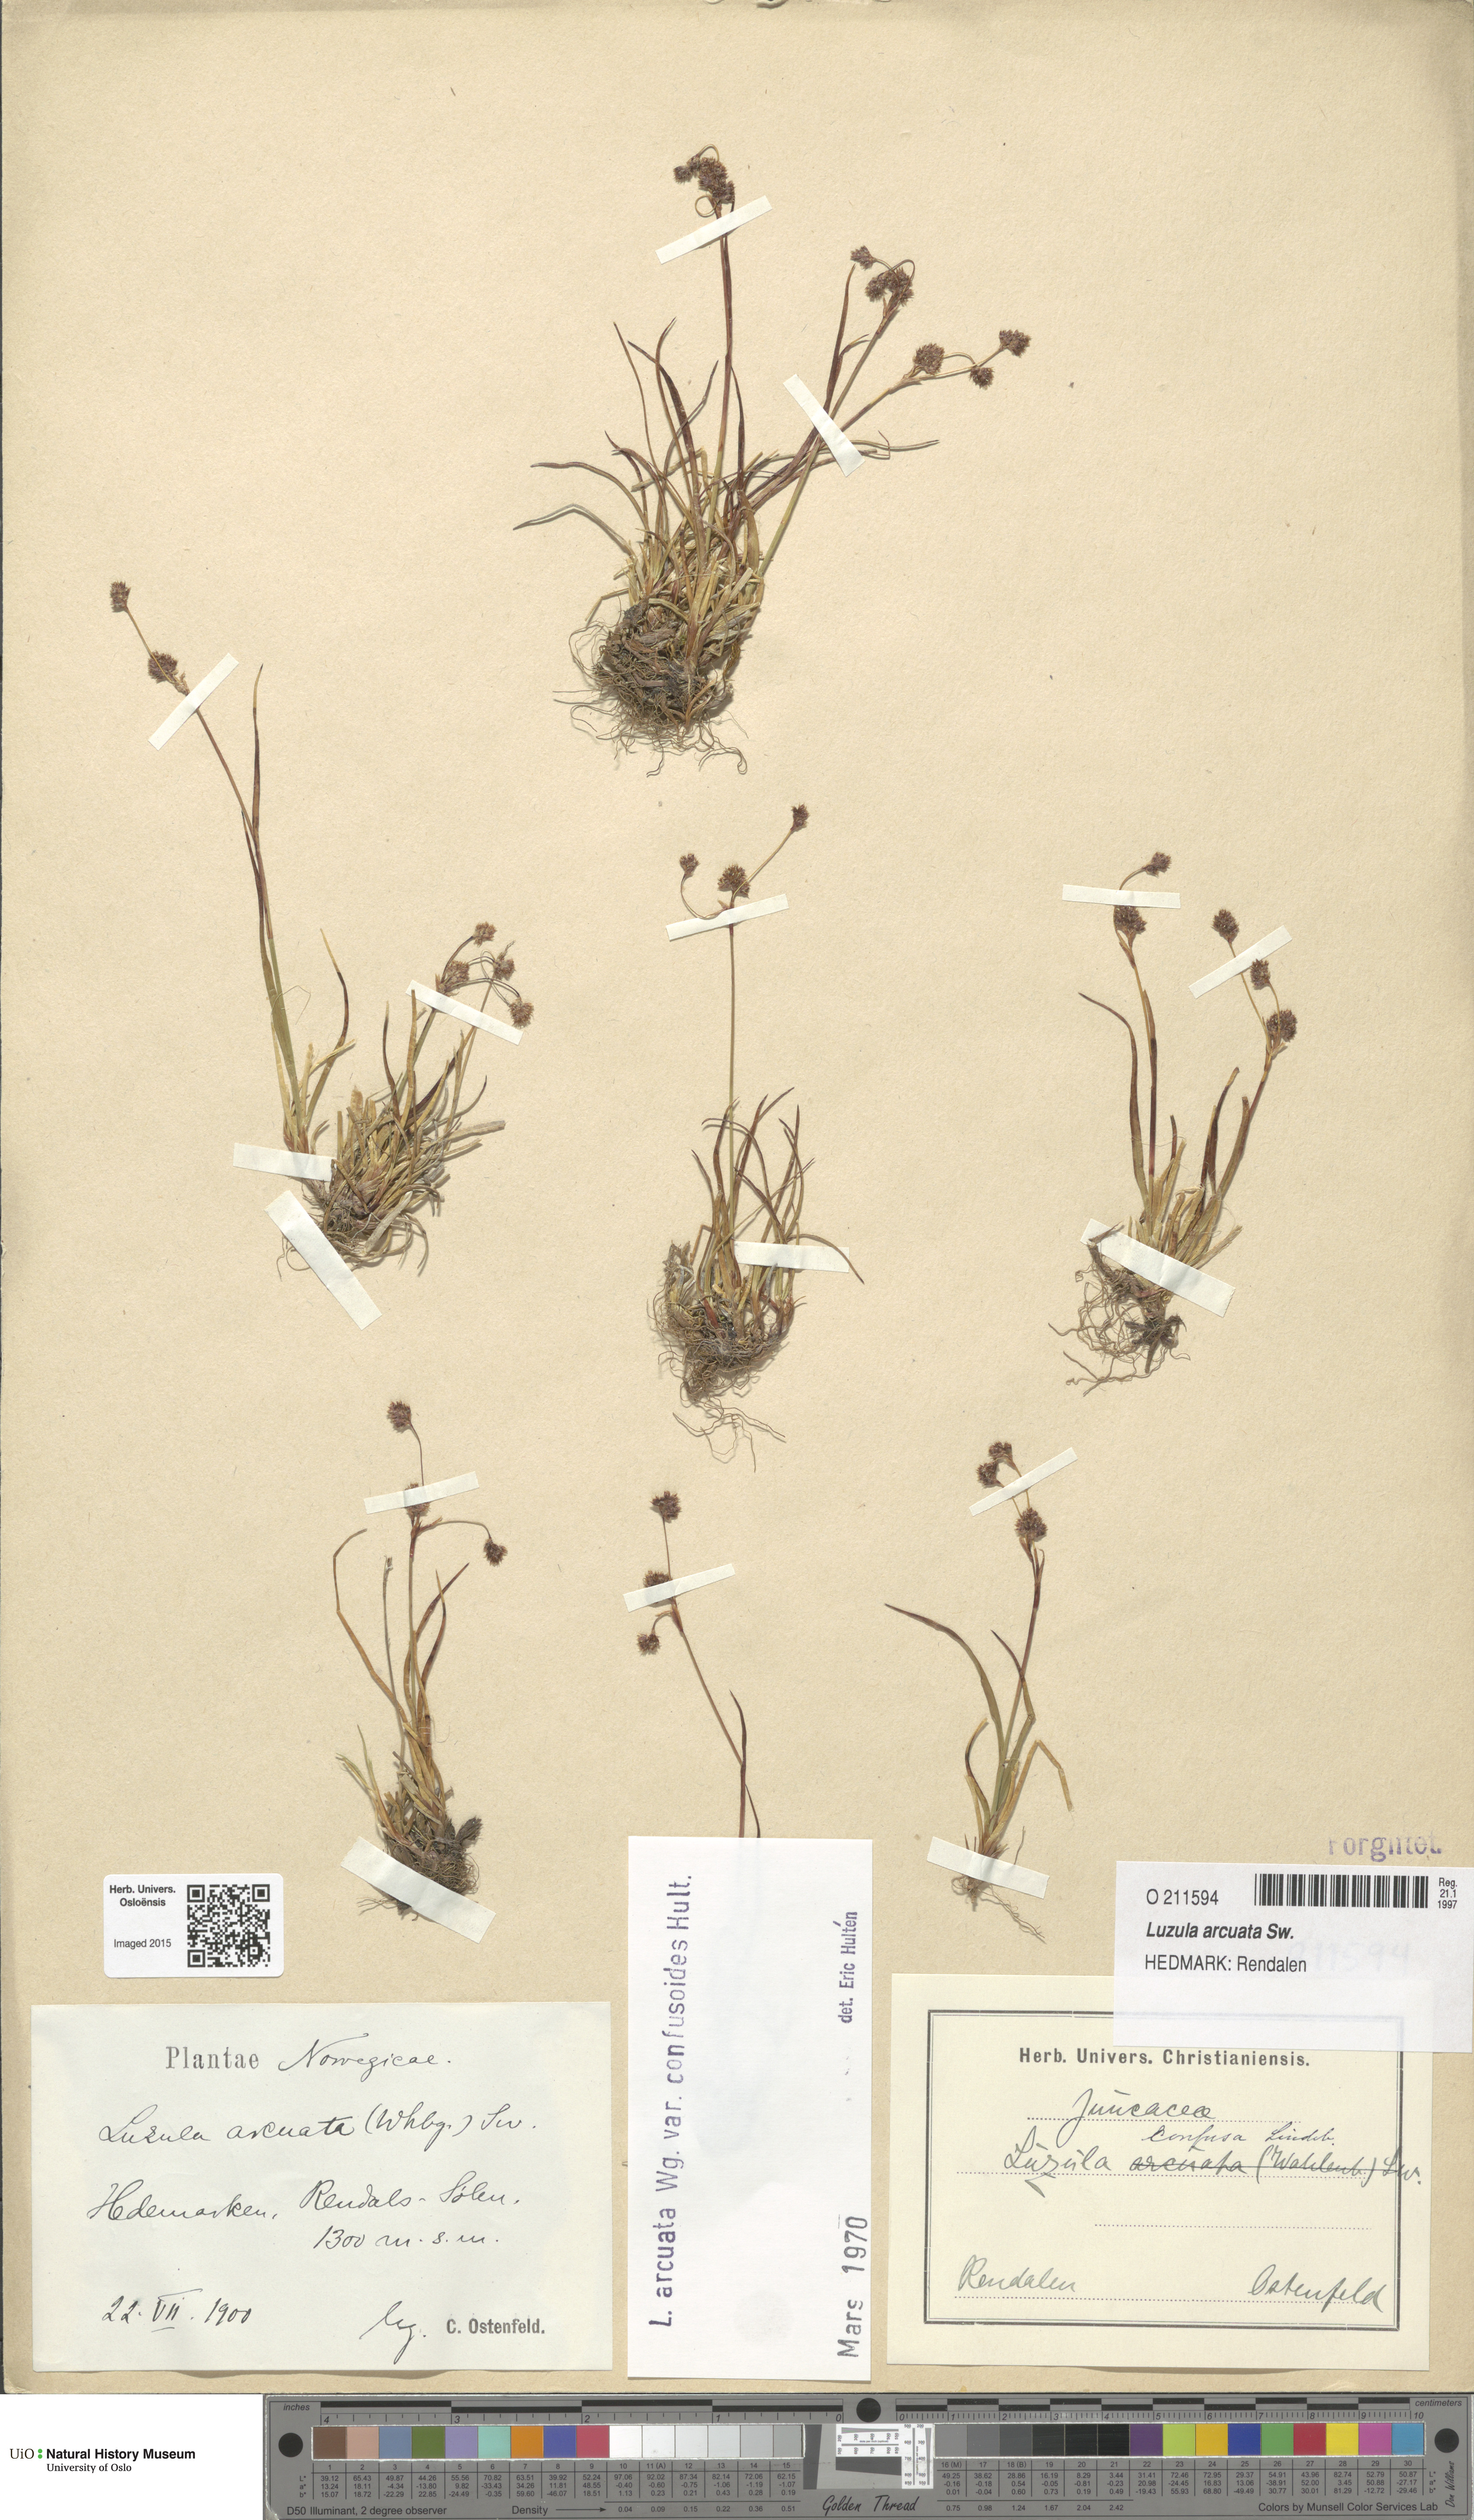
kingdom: Plantae
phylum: Tracheophyta
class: Liliopsida
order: Poales
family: Juncaceae
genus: Luzula
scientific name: Luzula arcuata
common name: Curved wood-rush
